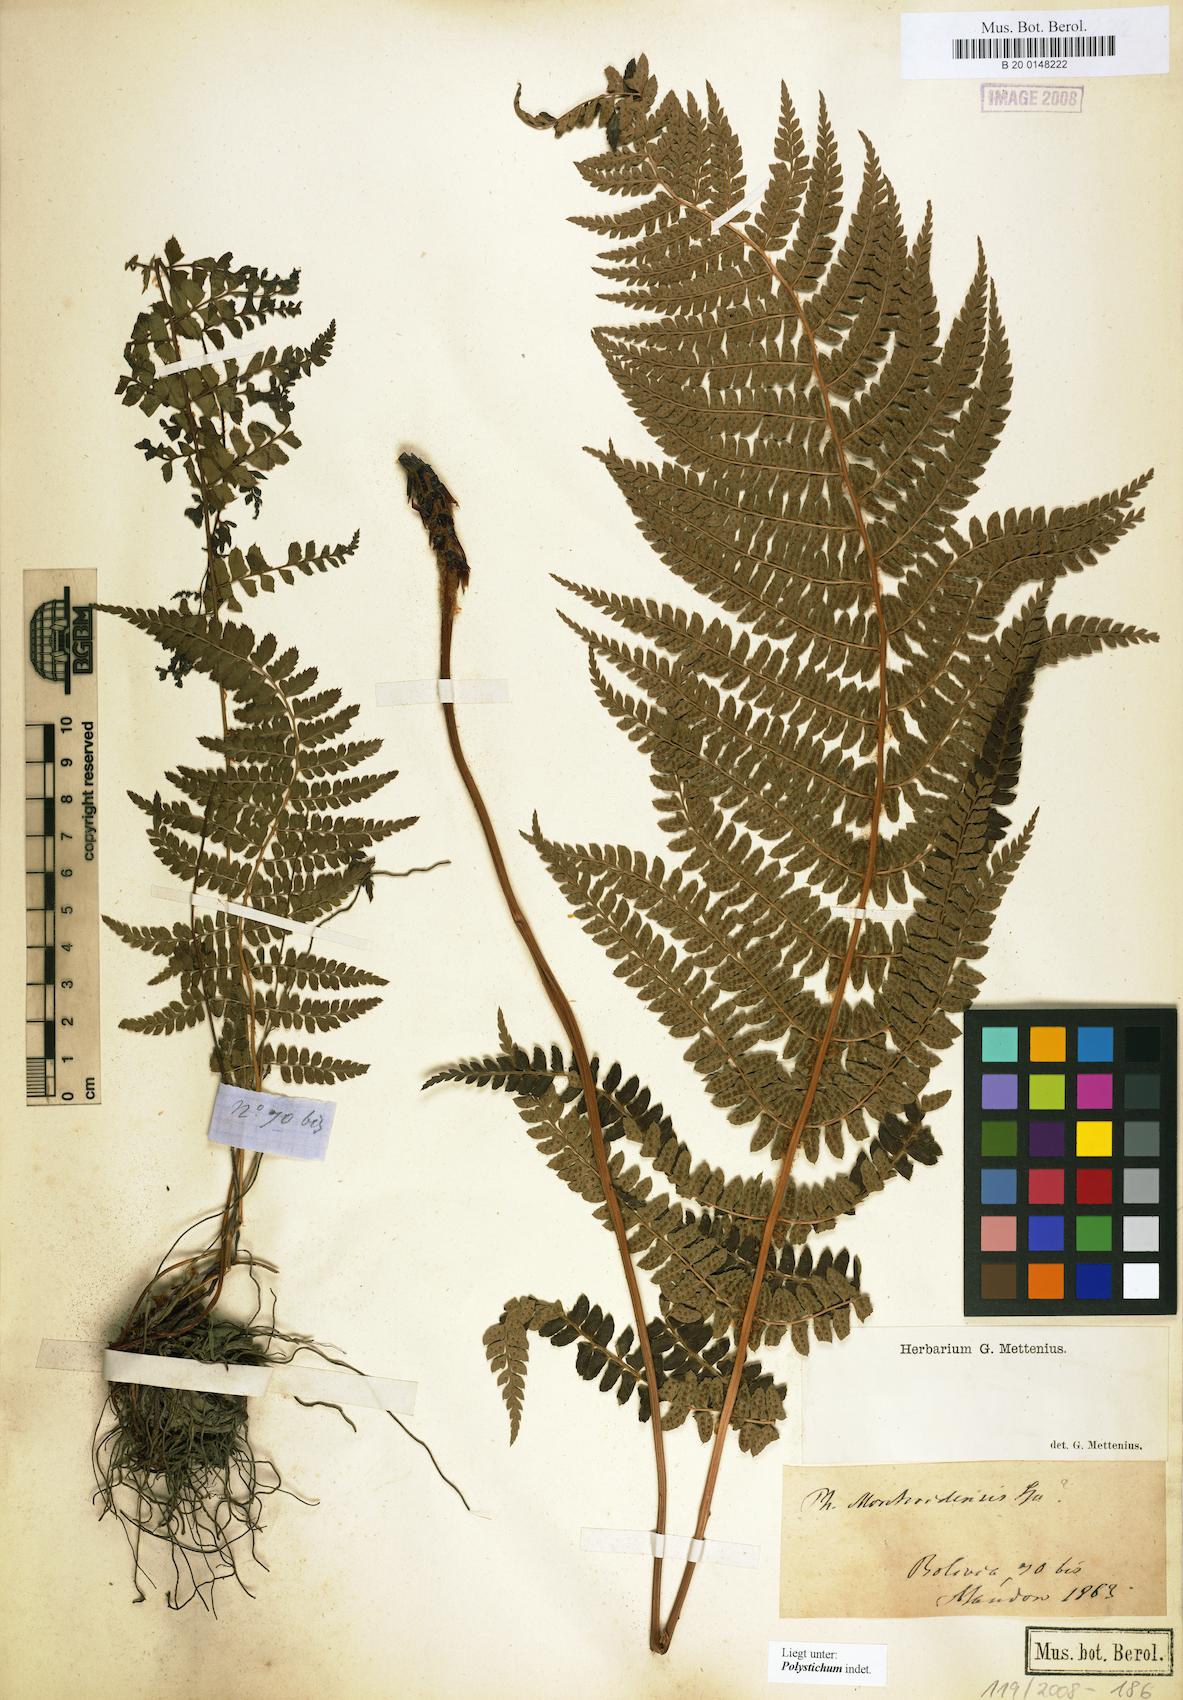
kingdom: Plantae
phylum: Tracheophyta
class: Polypodiopsida
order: Polypodiales
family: Dryopteridaceae
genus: Polystichum
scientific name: Polystichum
